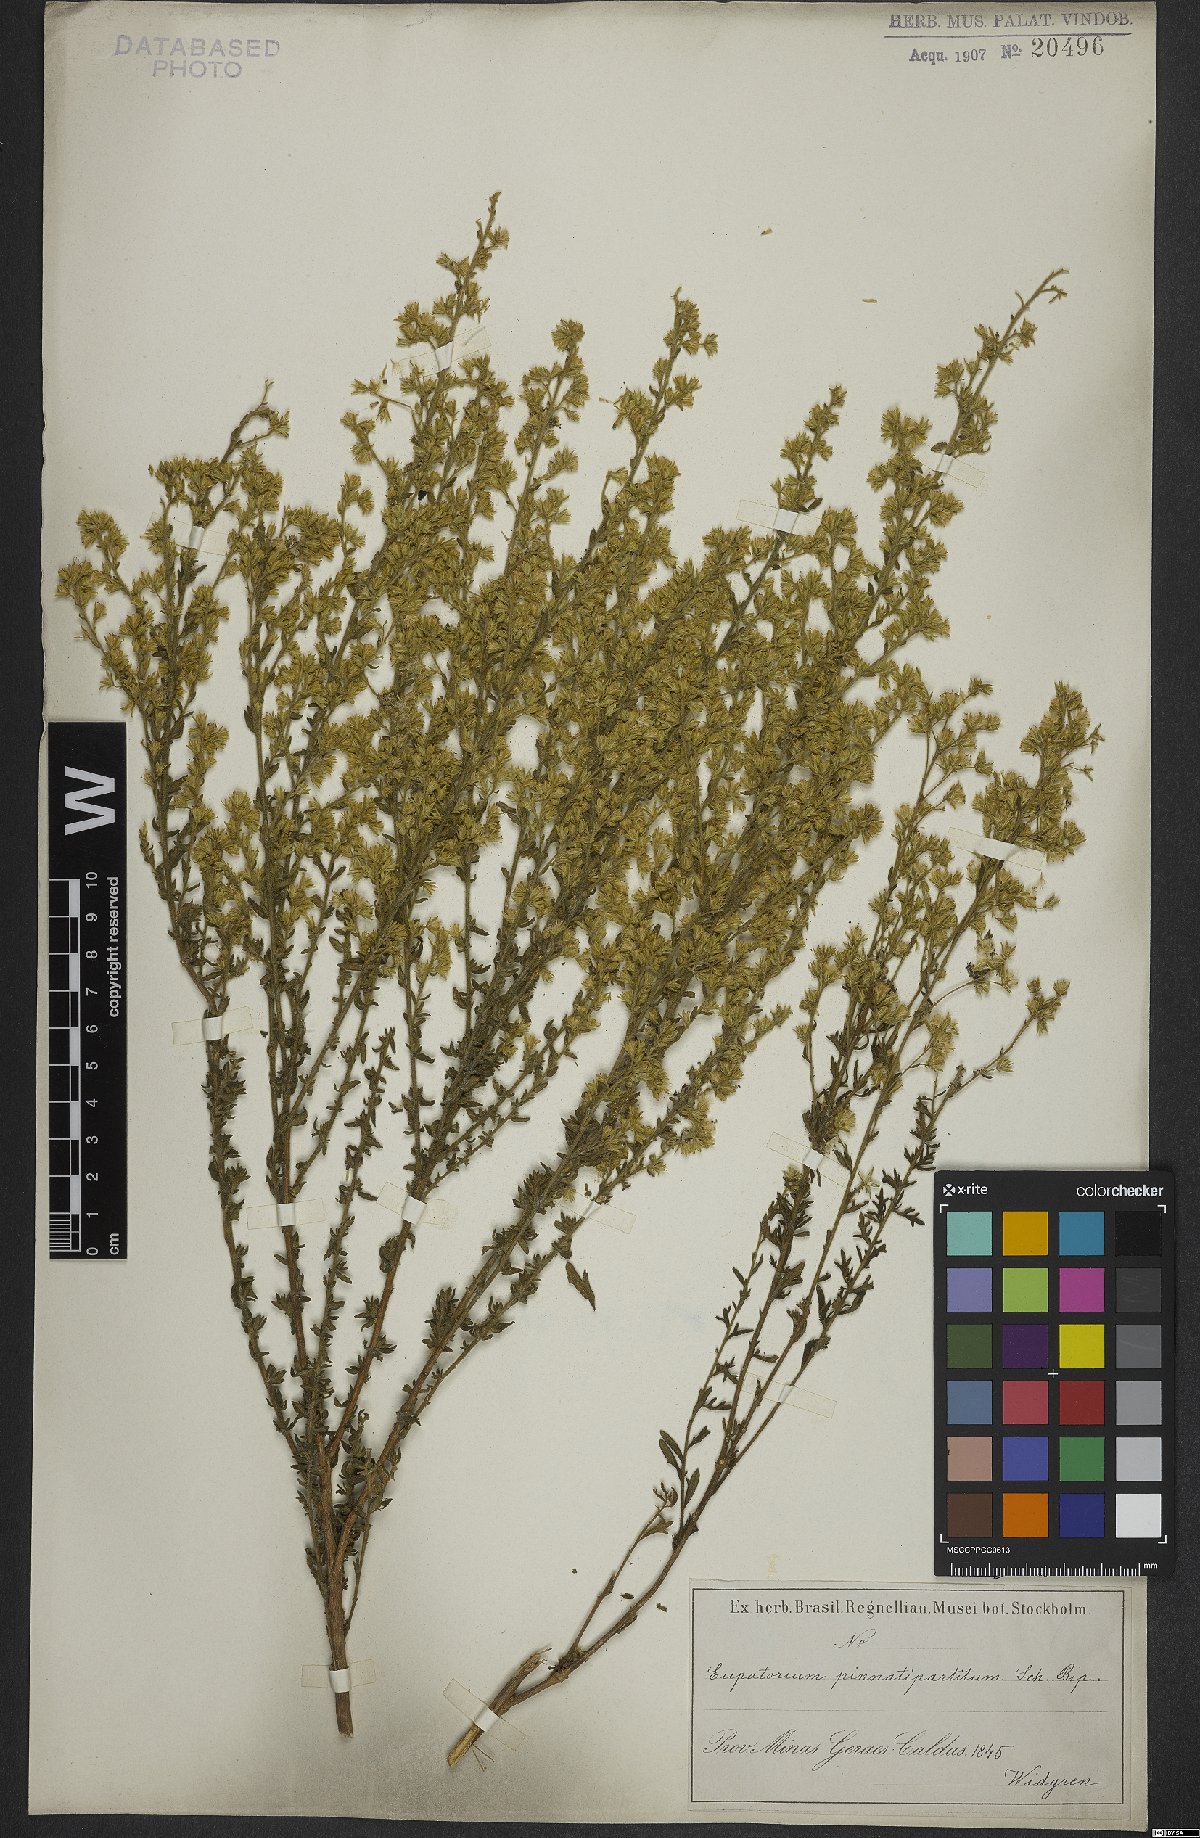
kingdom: Plantae
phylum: Tracheophyta
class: Magnoliopsida
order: Asterales
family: Asteraceae
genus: Stomatanthes
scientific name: Stomatanthes pinnatipartitus
